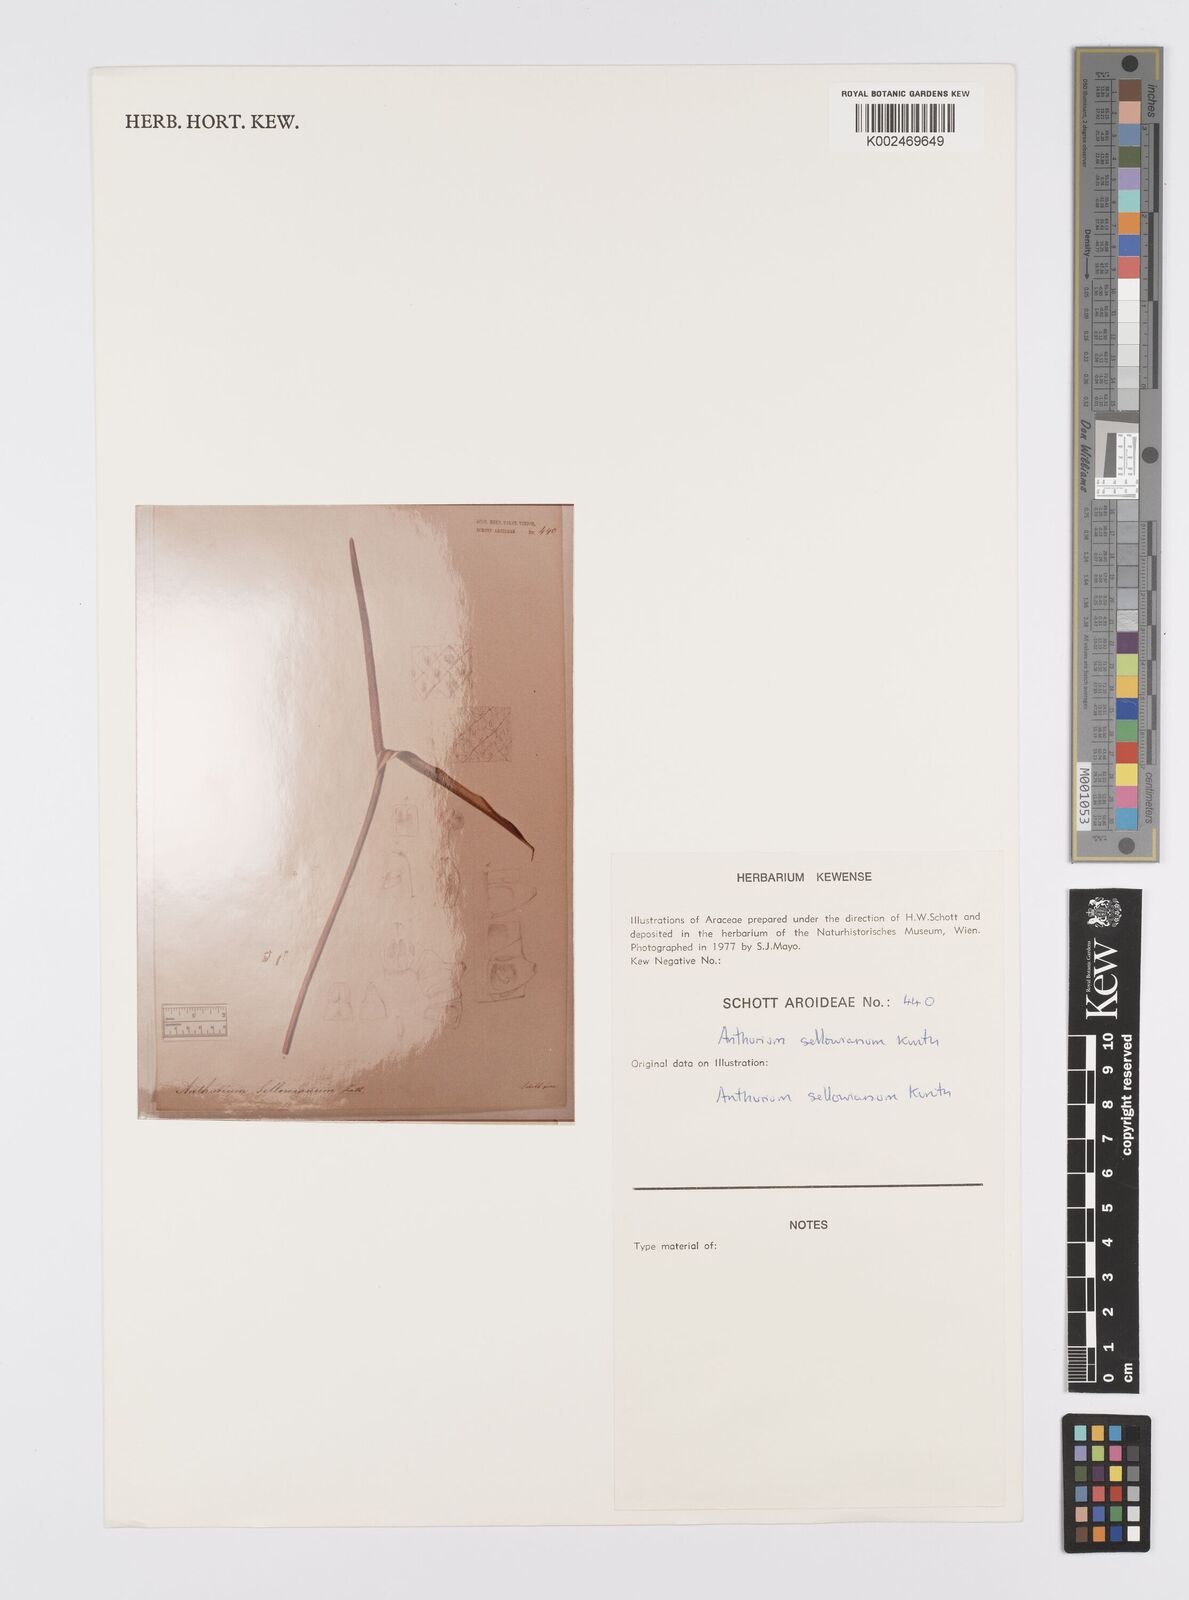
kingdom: Plantae
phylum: Tracheophyta
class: Liliopsida
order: Alismatales
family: Araceae
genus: Anthurium
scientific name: Anthurium sellowianum
